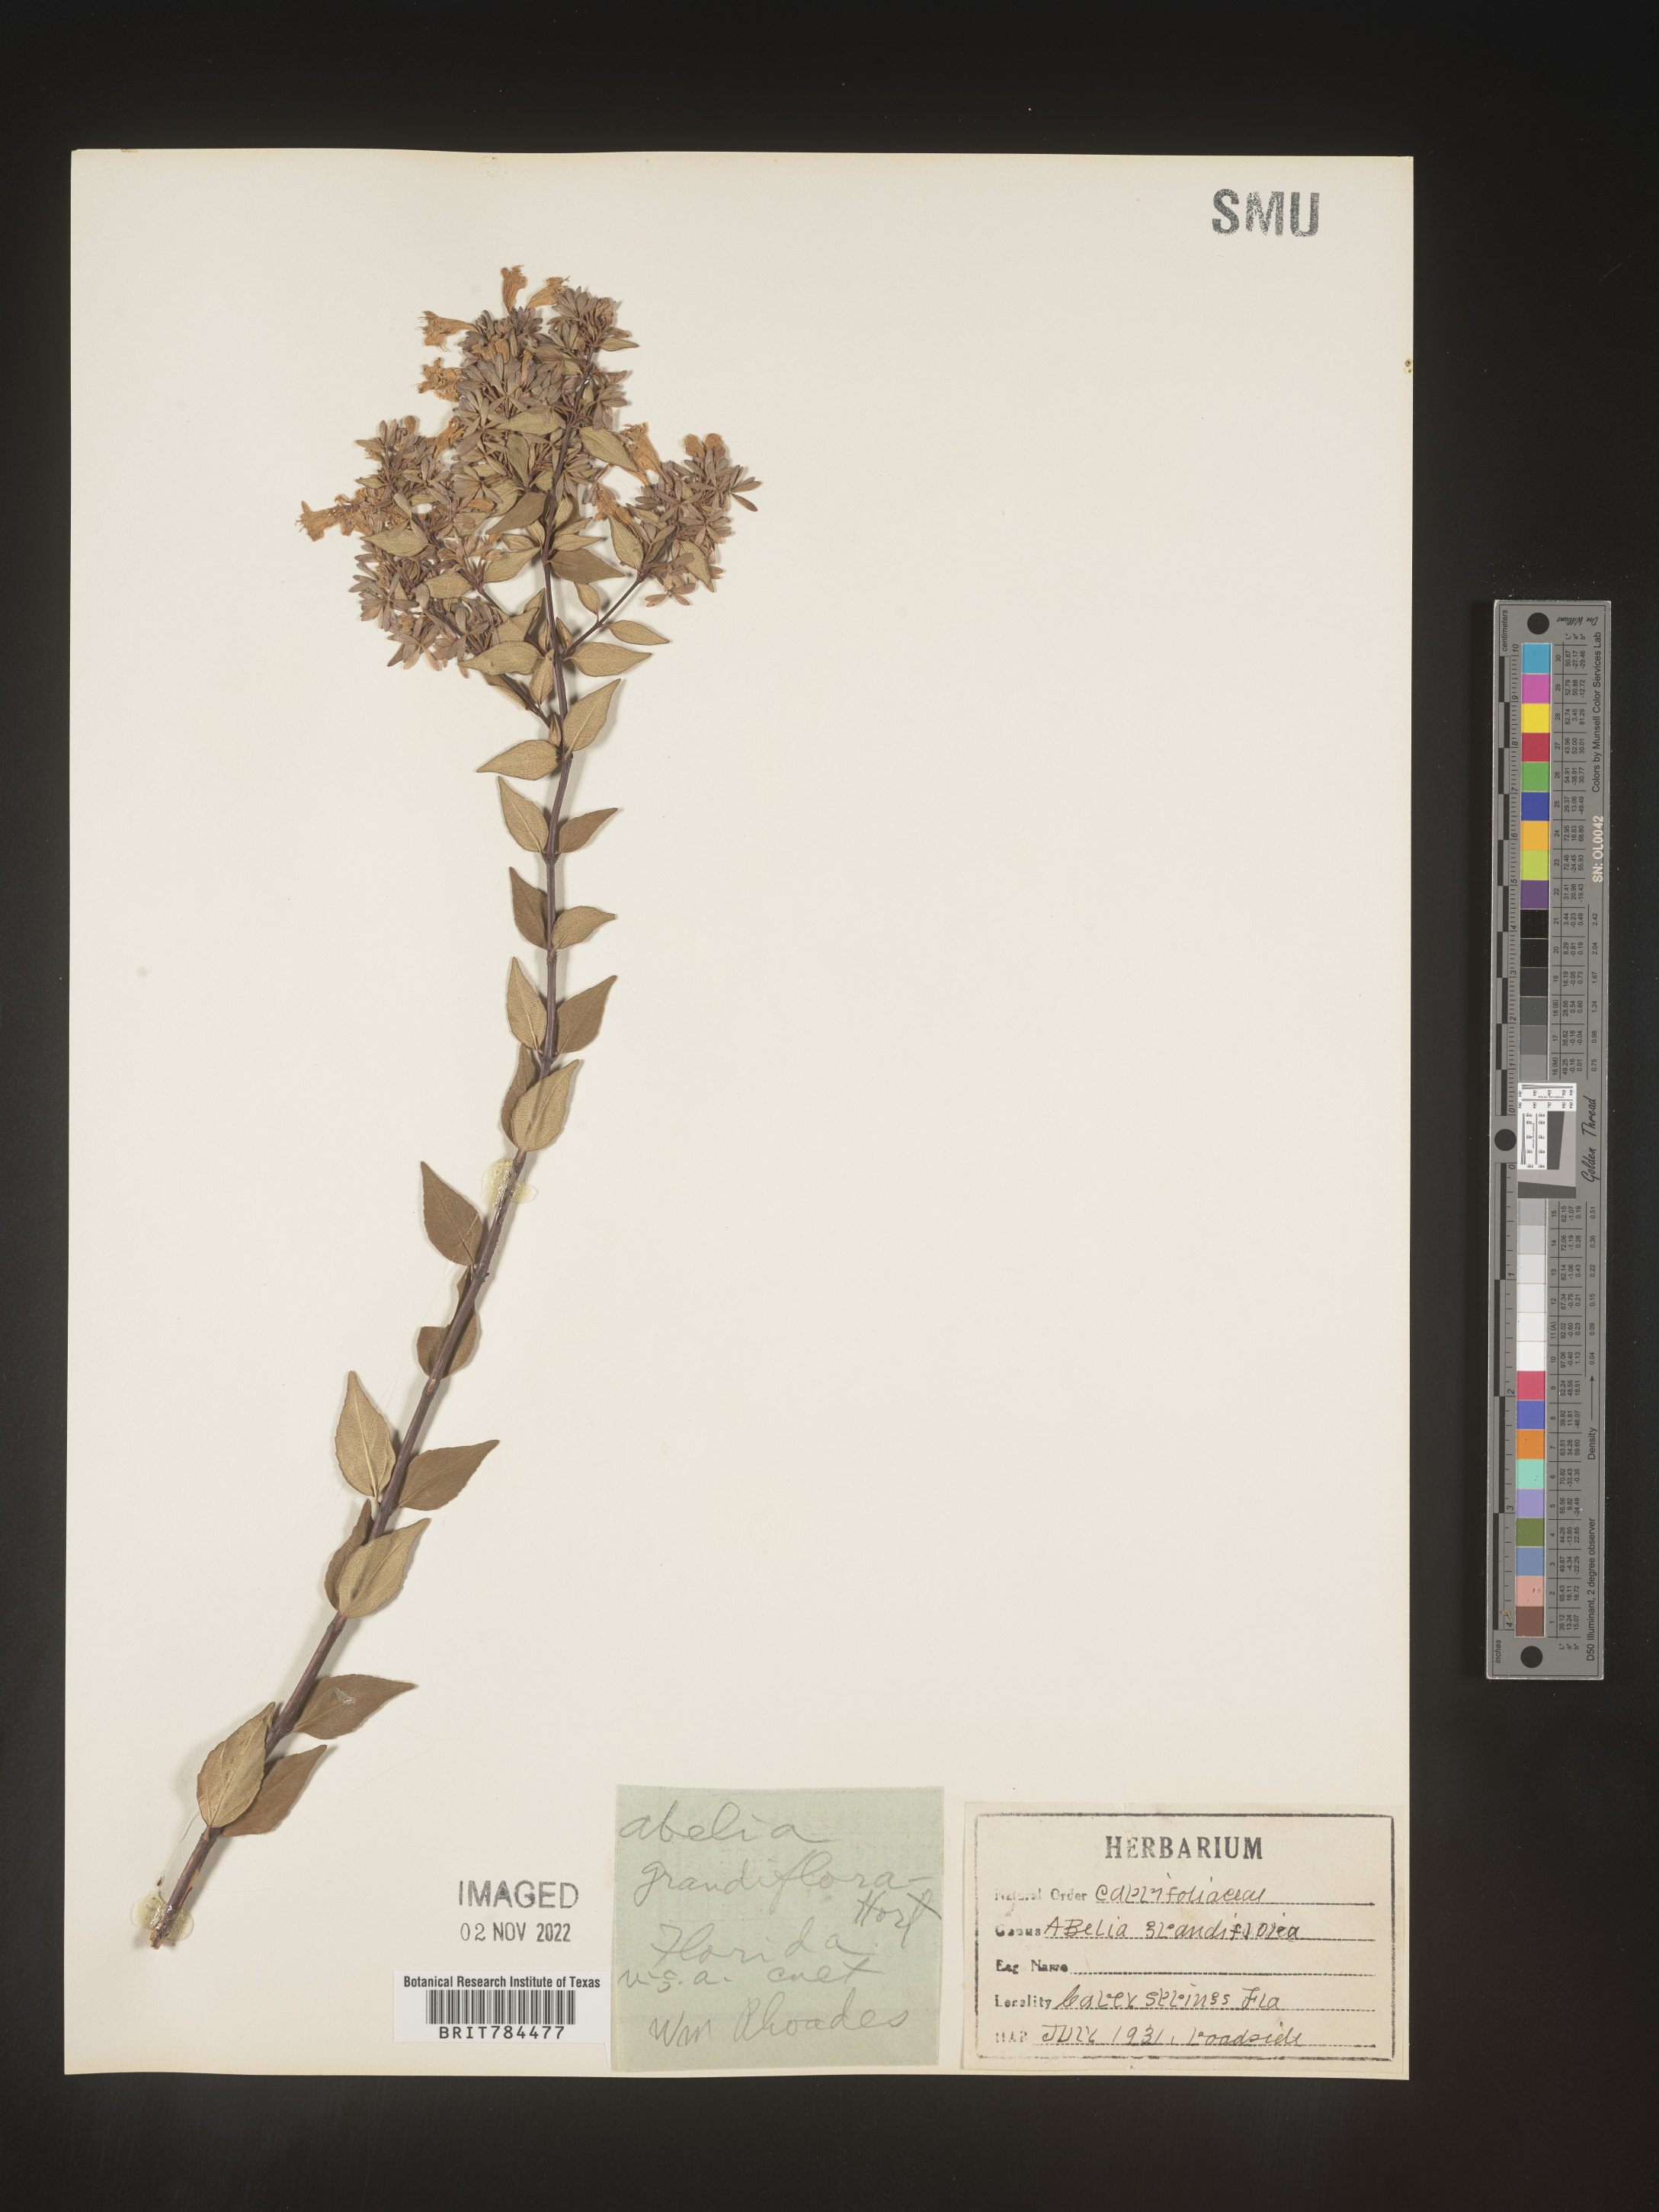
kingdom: Plantae
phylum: Tracheophyta
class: Magnoliopsida
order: Dipsacales
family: Caprifoliaceae
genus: Abelia
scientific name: Abelia
